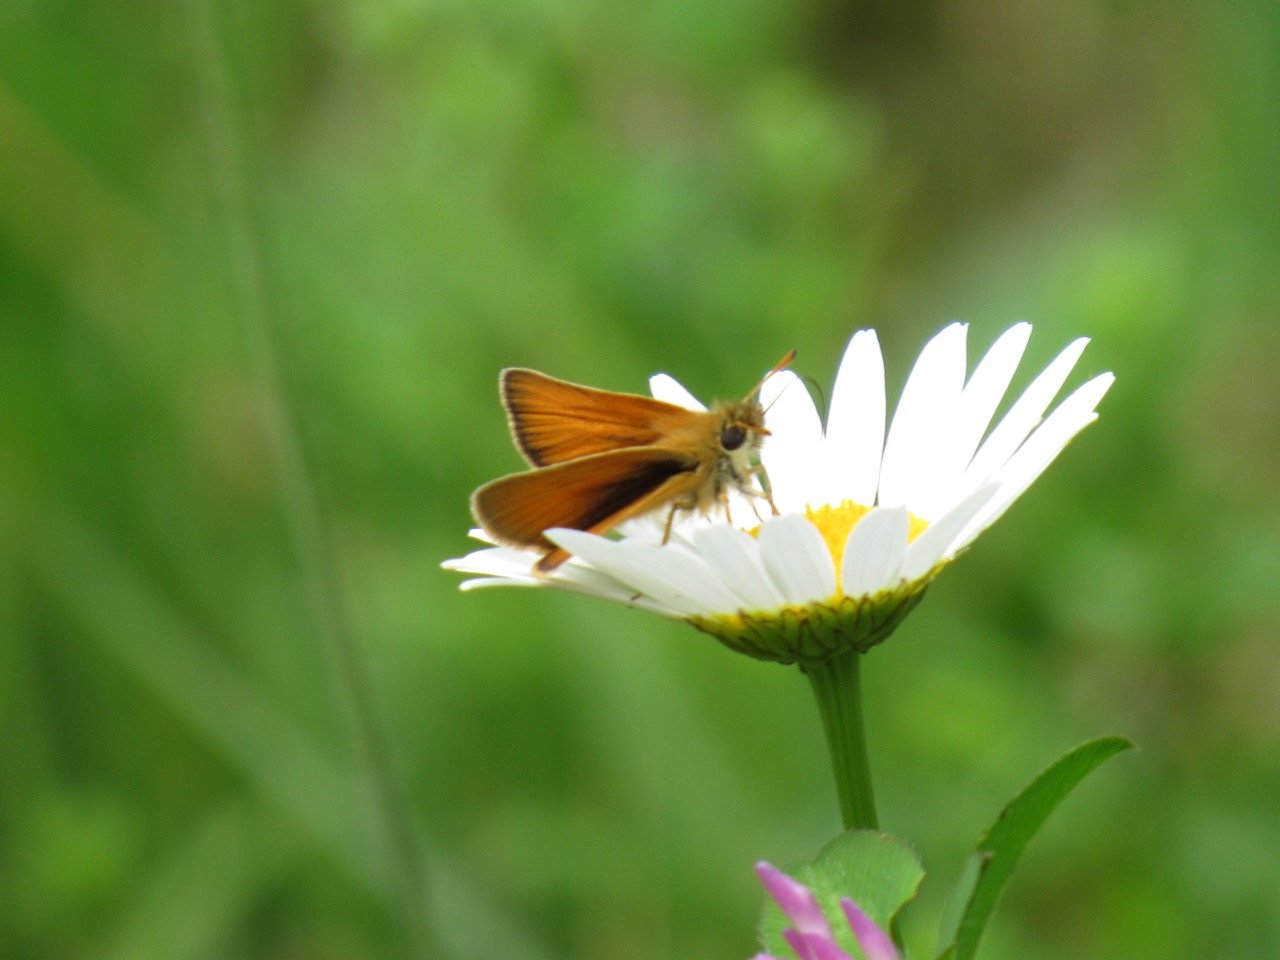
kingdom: Animalia
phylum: Arthropoda
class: Insecta
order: Lepidoptera
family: Hesperiidae
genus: Thymelicus
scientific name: Thymelicus lineola
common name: European Skipper
